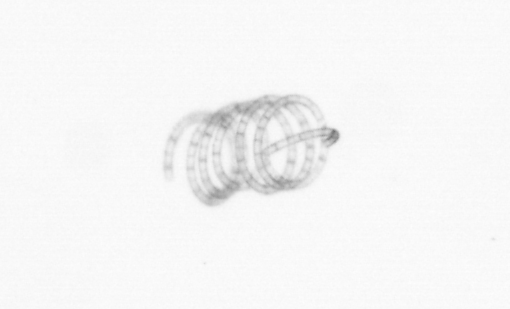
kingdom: Chromista
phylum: Ochrophyta
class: Bacillariophyceae
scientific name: Bacillariophyceae
